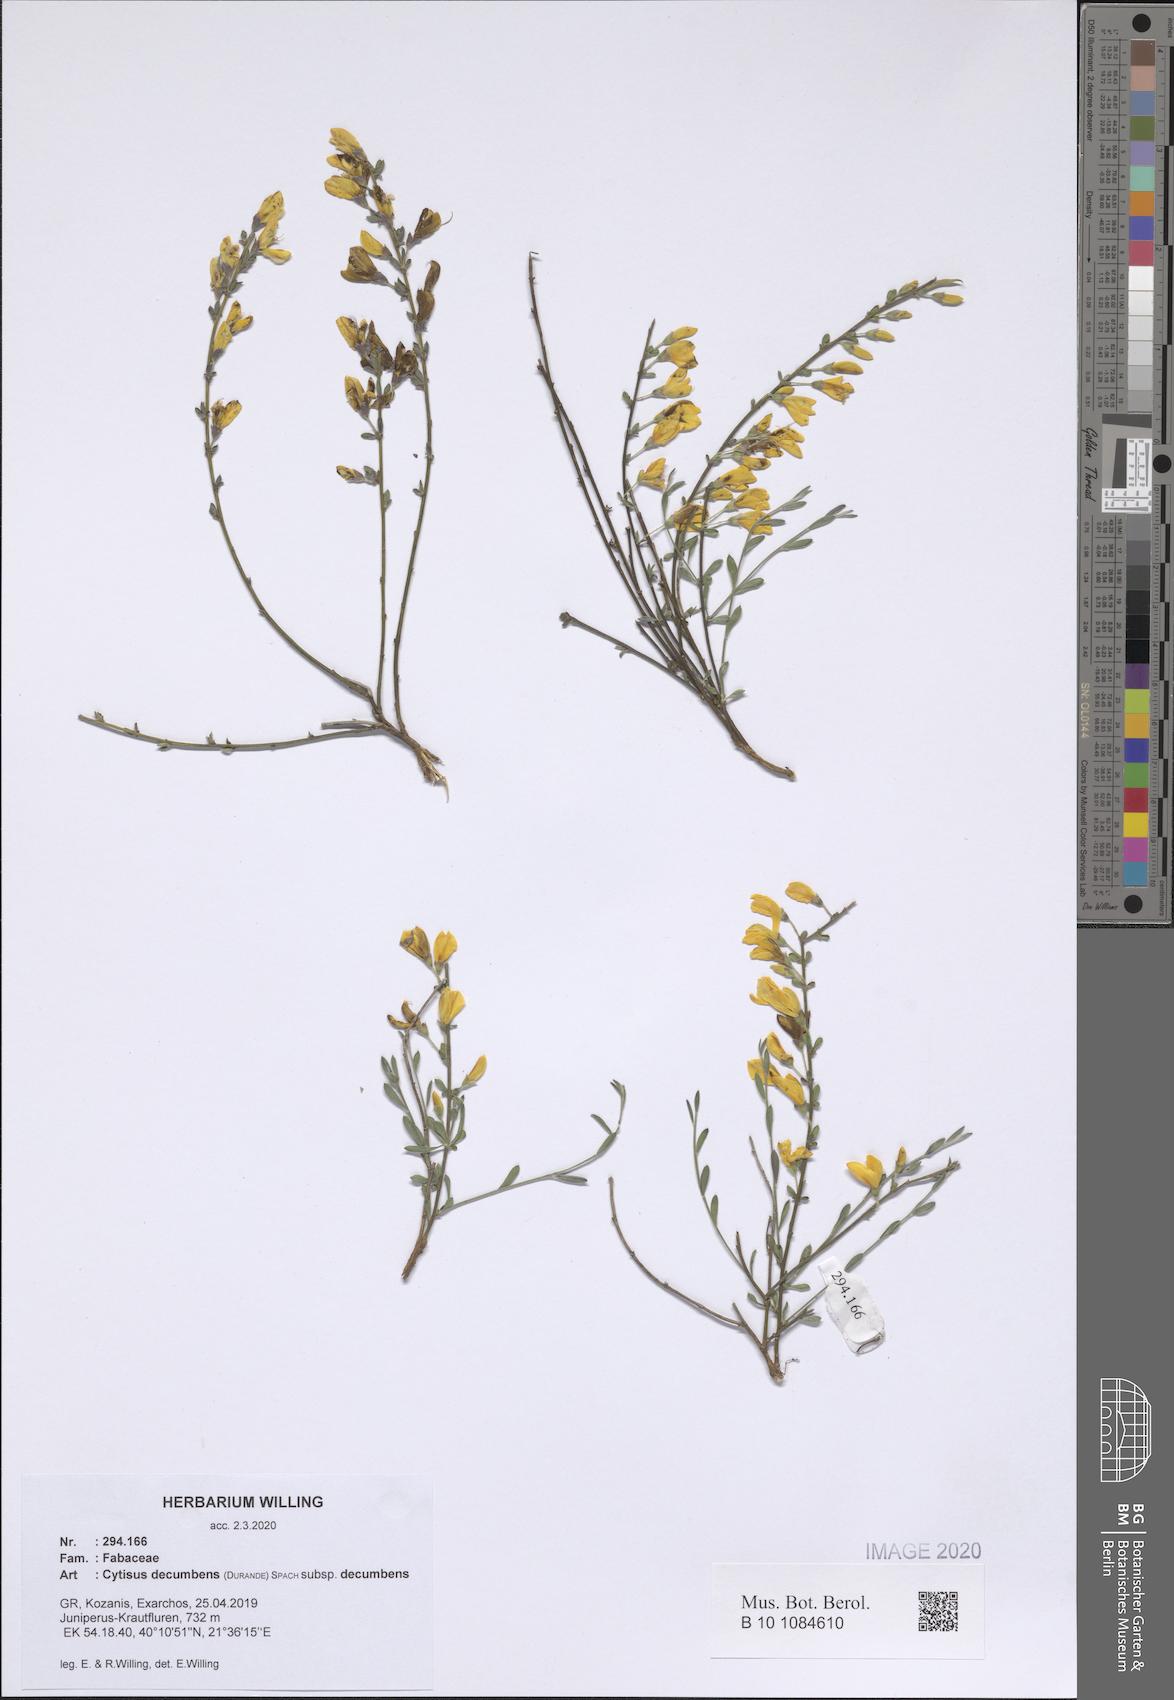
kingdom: Plantae
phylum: Tracheophyta
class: Magnoliopsida
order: Fabales
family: Fabaceae
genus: Cytisus
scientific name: Cytisus decumbens
